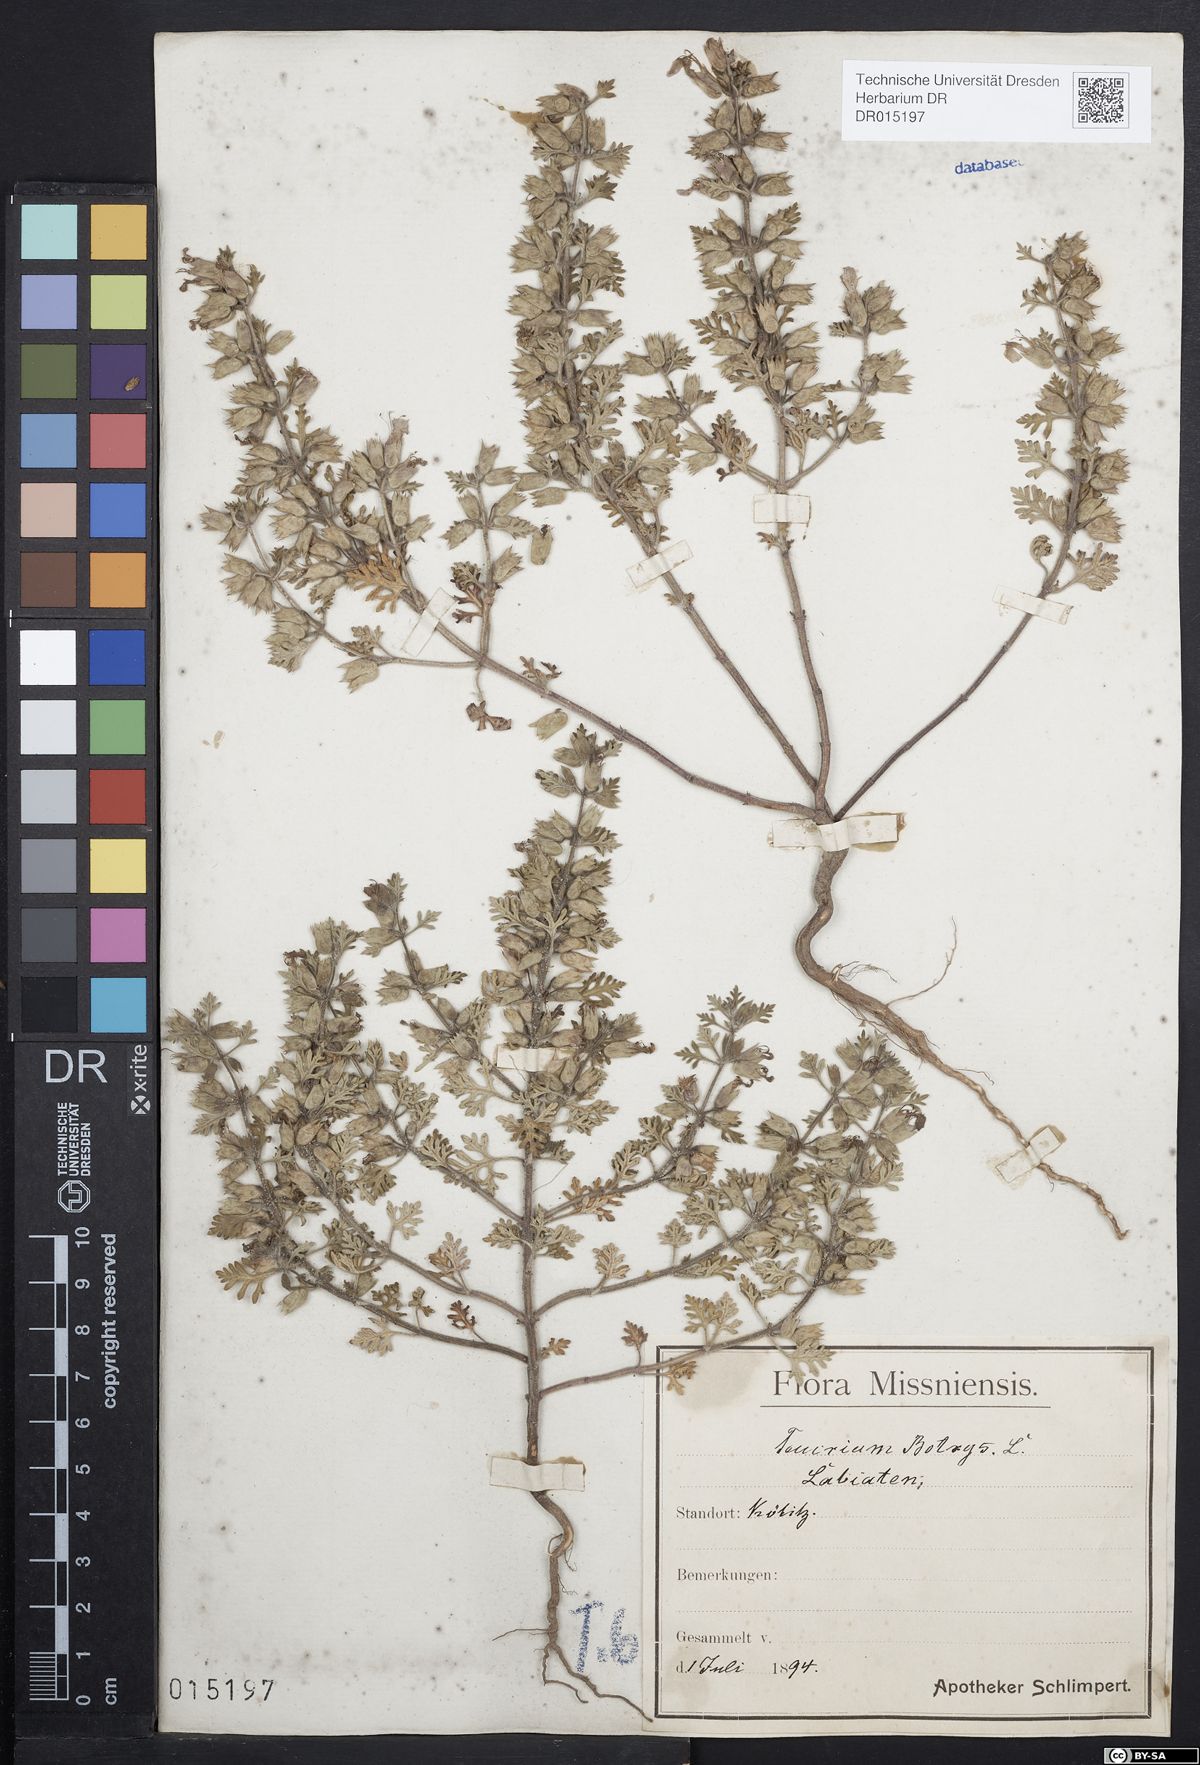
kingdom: Plantae
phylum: Tracheophyta
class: Magnoliopsida
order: Lamiales
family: Lamiaceae
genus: Teucrium
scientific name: Teucrium botrys
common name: Cut-leaved germander
